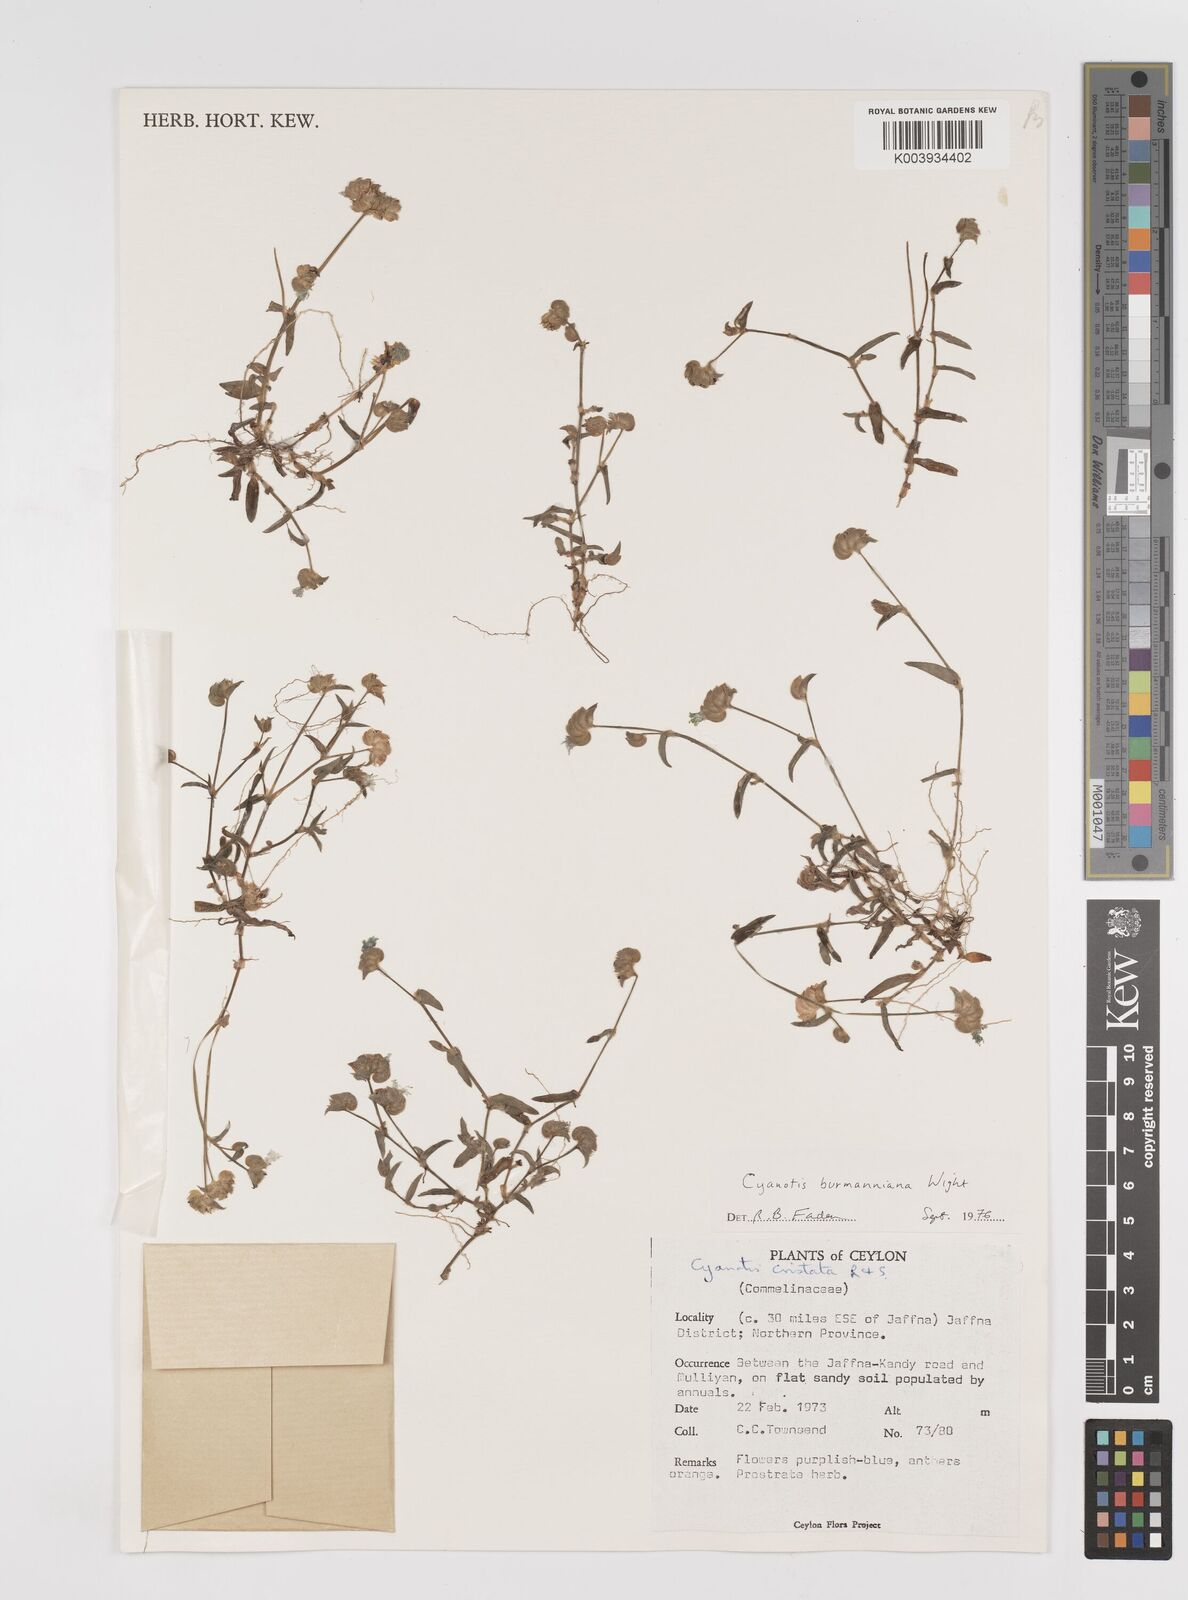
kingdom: Plantae
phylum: Tracheophyta
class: Liliopsida
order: Commelinales
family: Commelinaceae
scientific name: Commelinaceae
